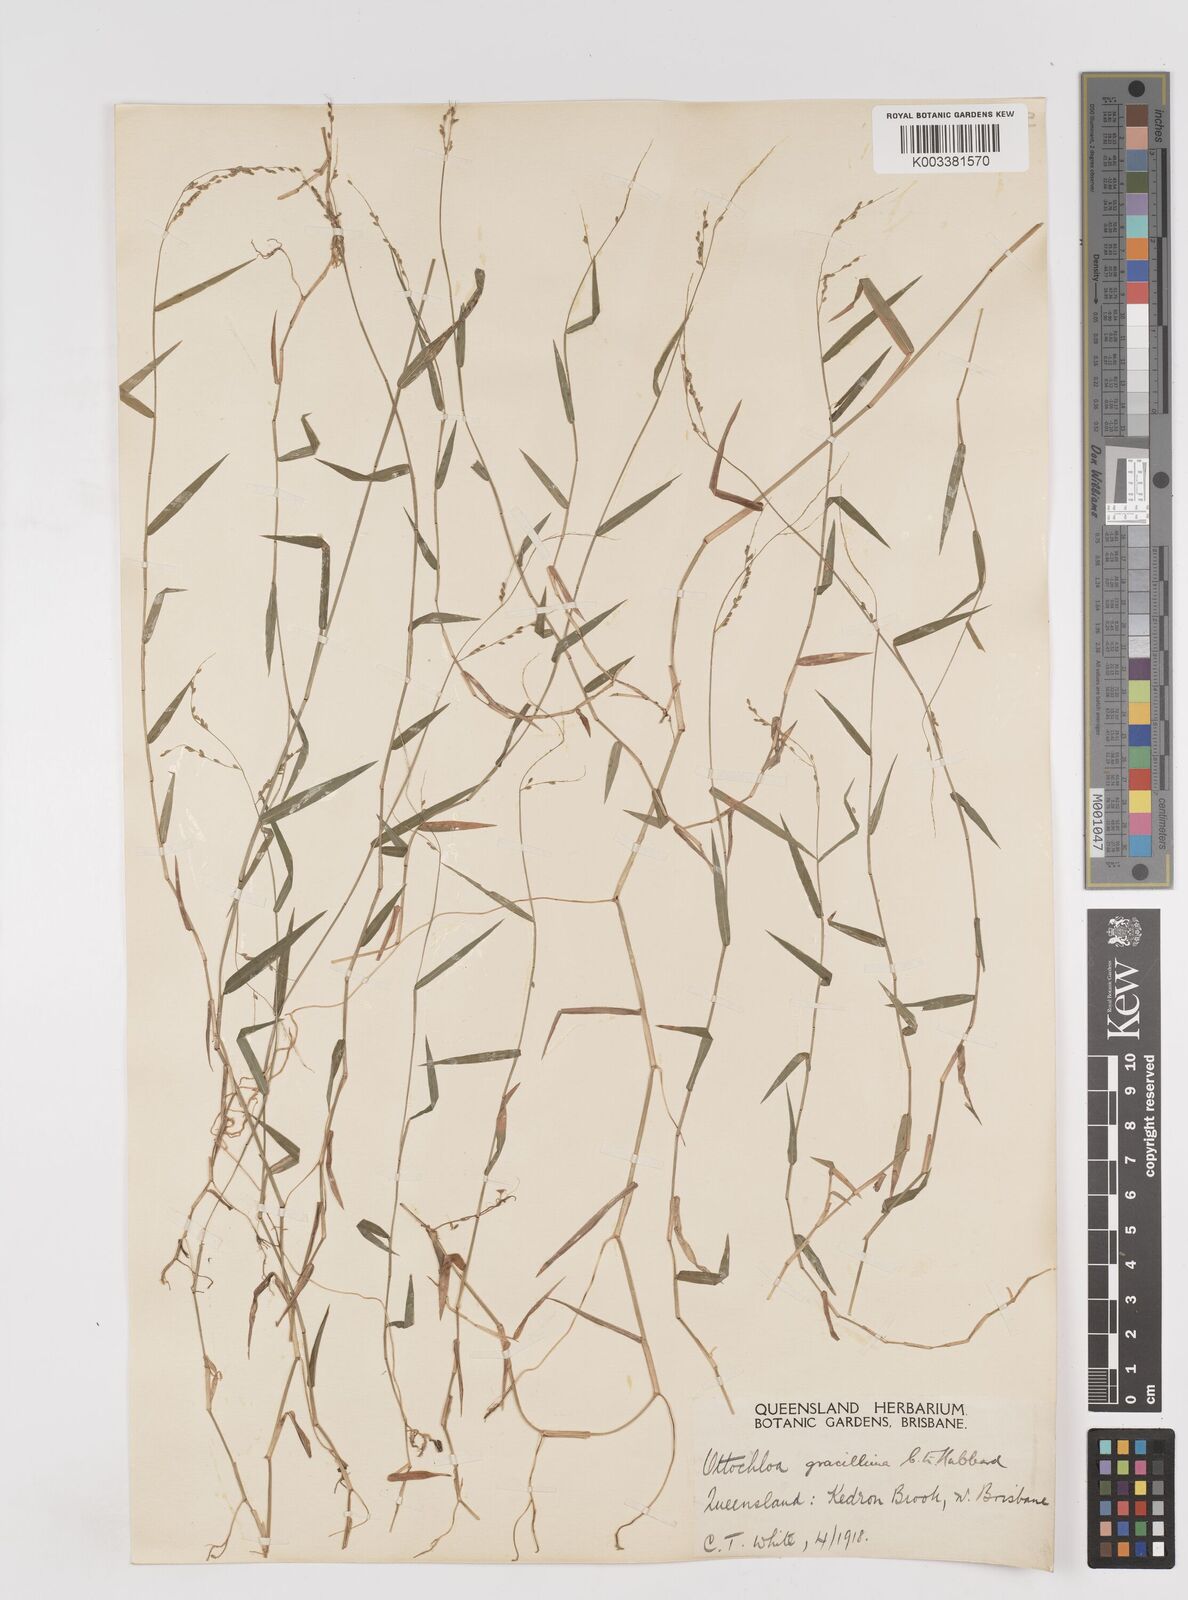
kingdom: Plantae
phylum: Tracheophyta
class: Liliopsida
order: Poales
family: Poaceae
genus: Ottochloa
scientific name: Ottochloa gracillima
